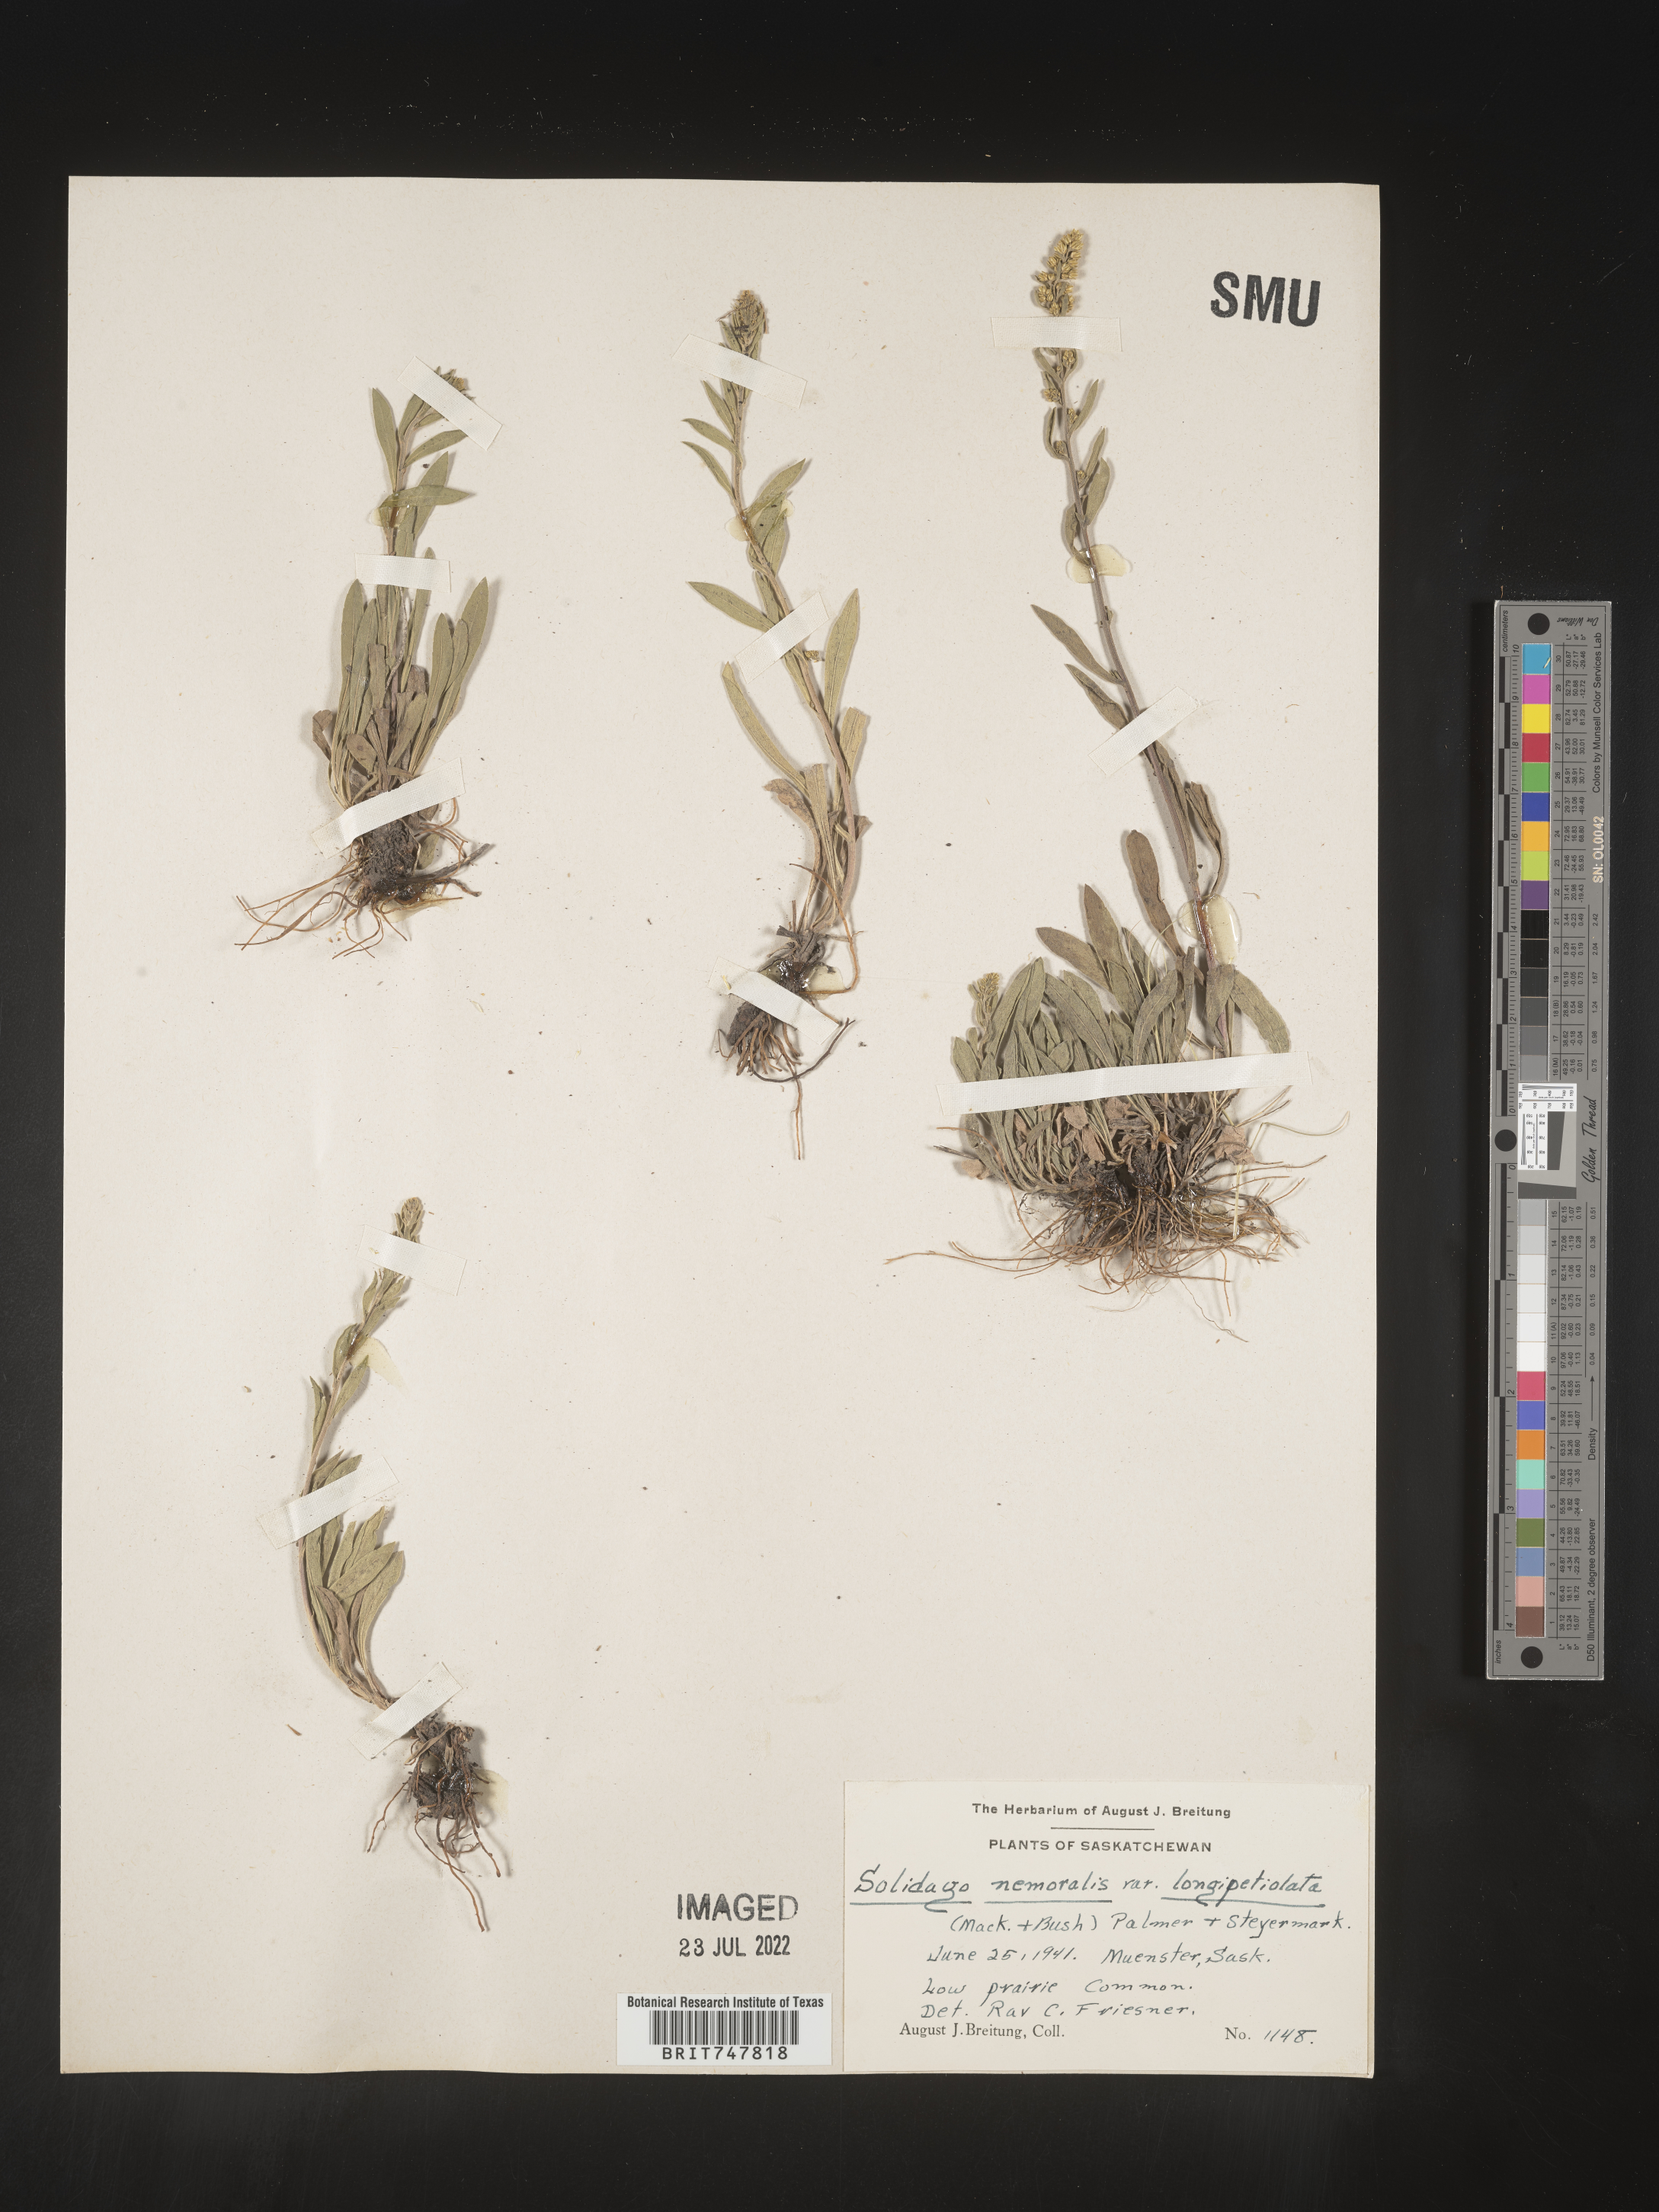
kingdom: Plantae
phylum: Tracheophyta
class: Magnoliopsida
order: Asterales
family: Asteraceae
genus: Solidago
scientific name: Solidago nemoralis
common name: Grey goldenrod
